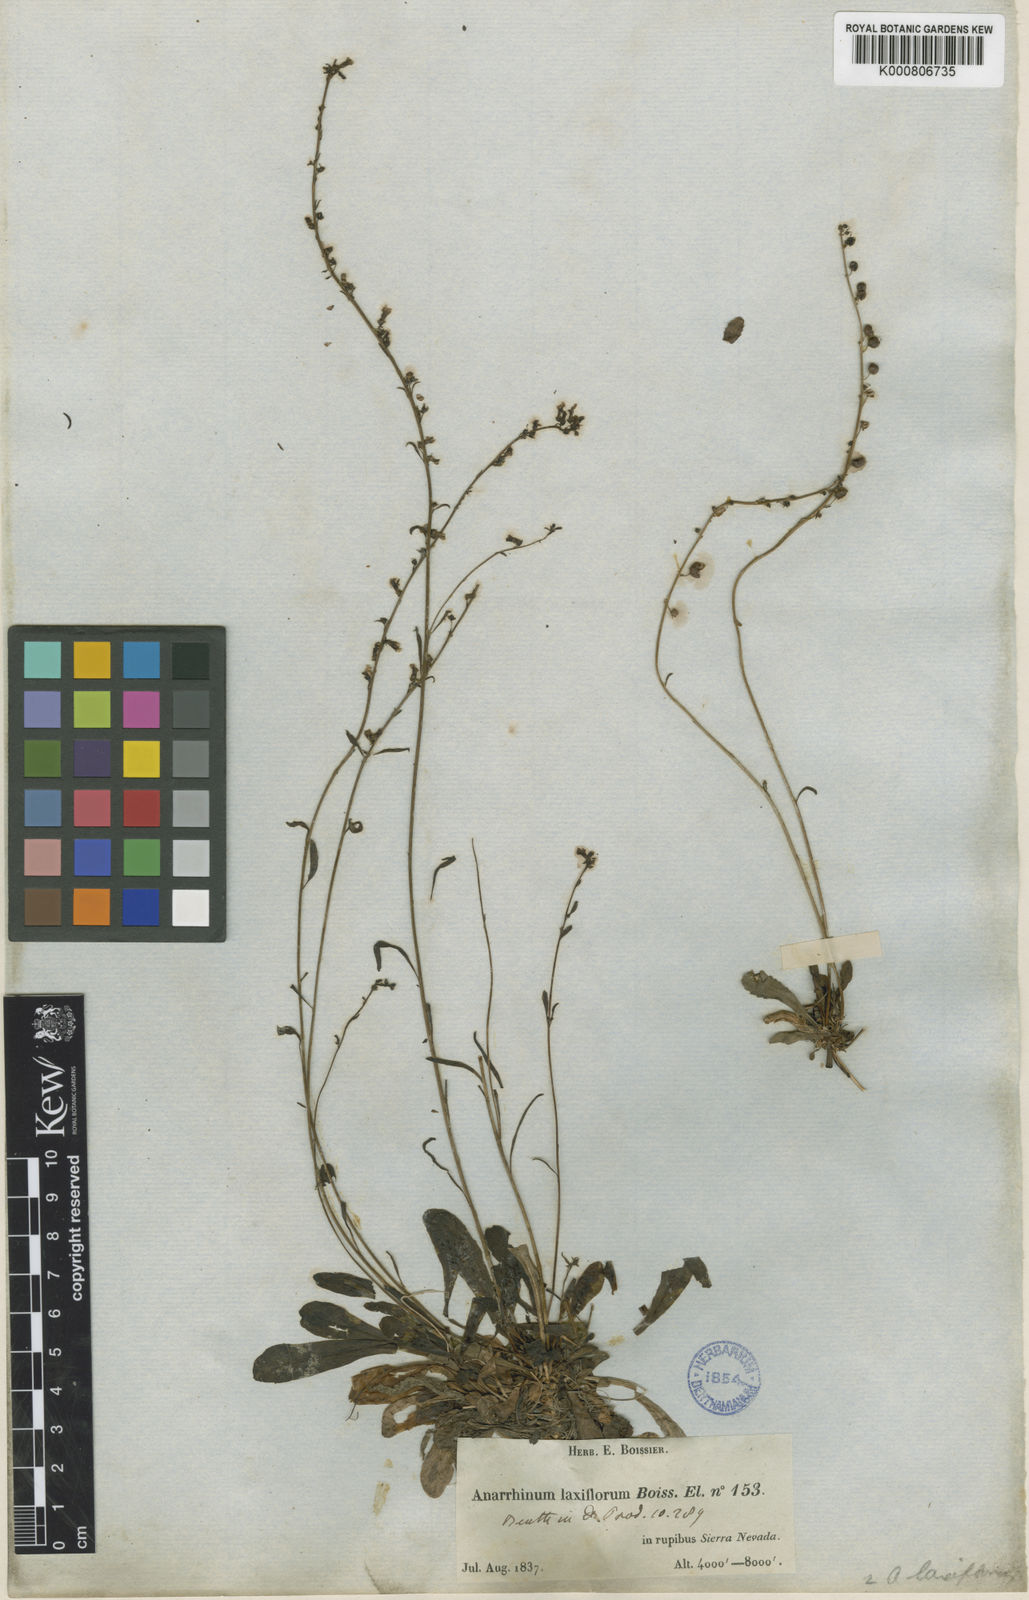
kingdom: Plantae
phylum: Tracheophyta
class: Magnoliopsida
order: Lamiales
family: Plantaginaceae
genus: Anarrhinum
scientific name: Anarrhinum laxiflorum
